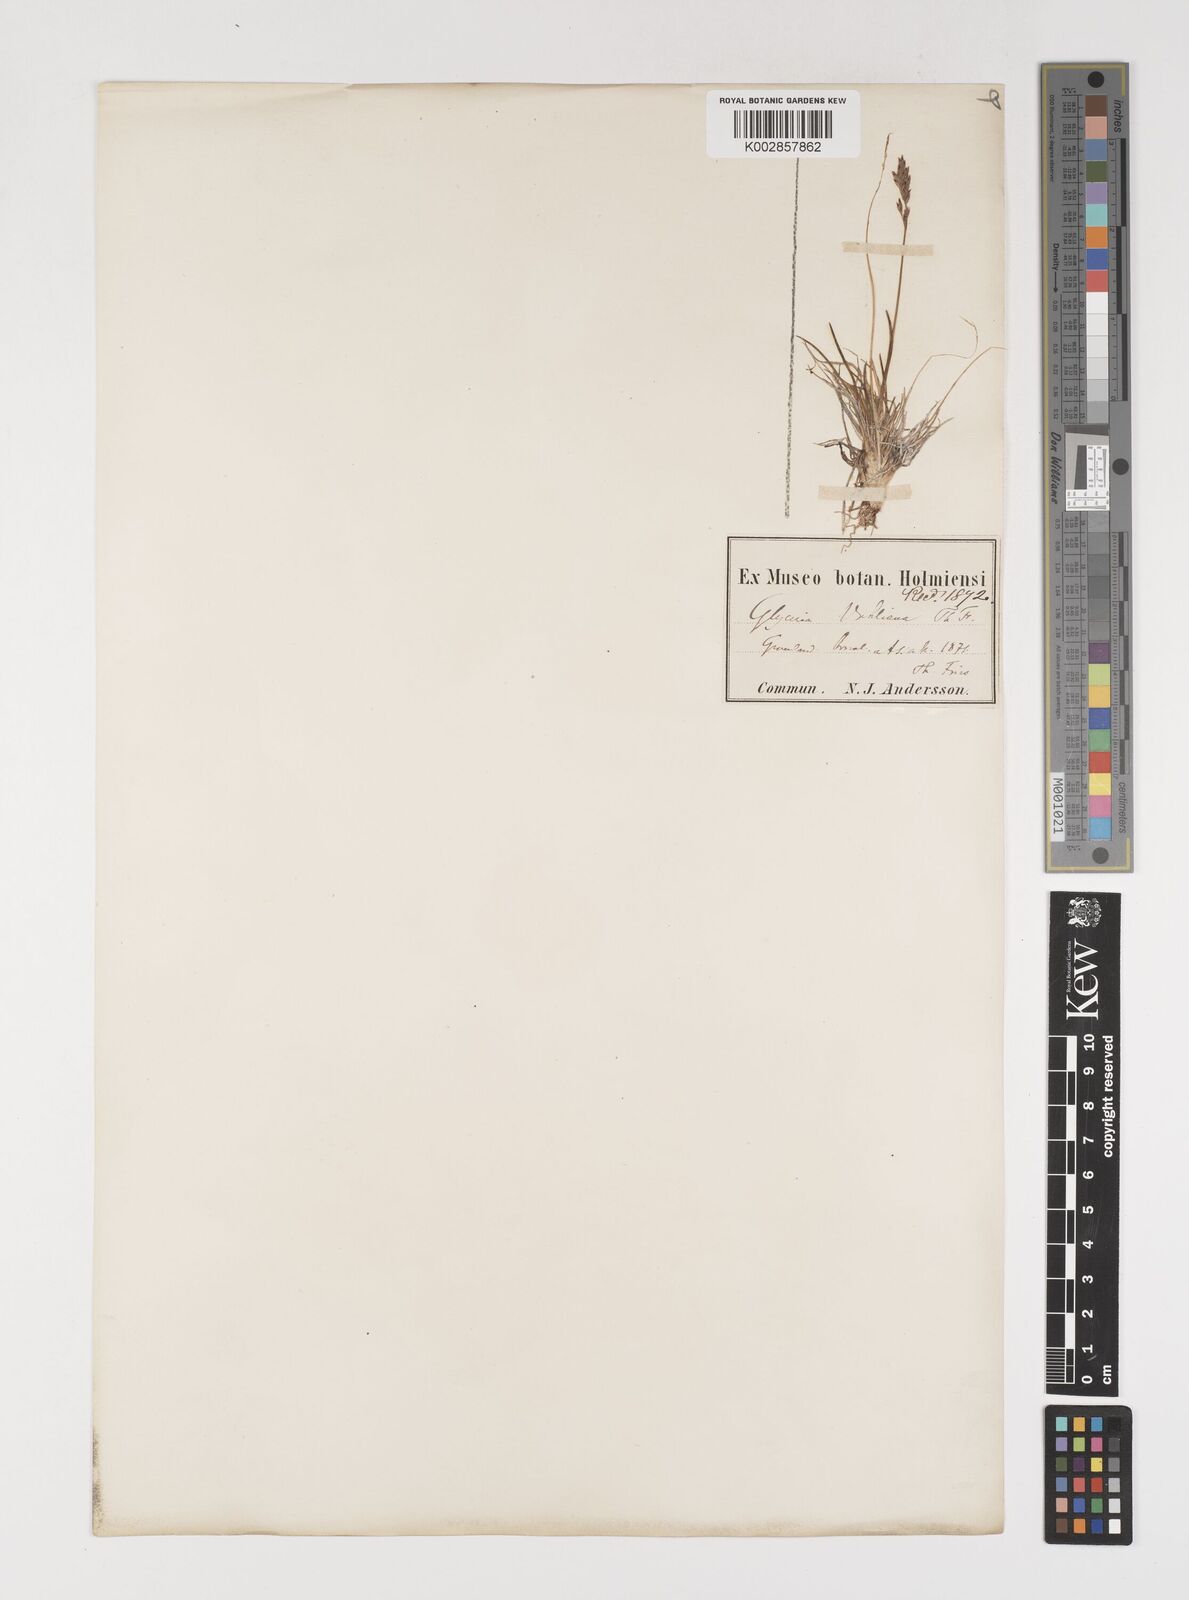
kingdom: Plantae
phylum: Tracheophyta
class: Liliopsida
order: Poales
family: Poaceae
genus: Puccinellia
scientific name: Puccinellia vahliana
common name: Vahl's alkaligrass
